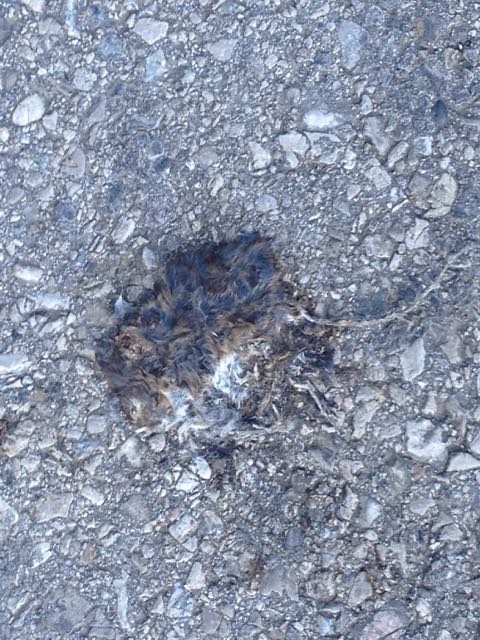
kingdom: Animalia
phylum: Chordata
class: Mammalia
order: Rodentia
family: Muridae
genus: Apodemus
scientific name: Apodemus
